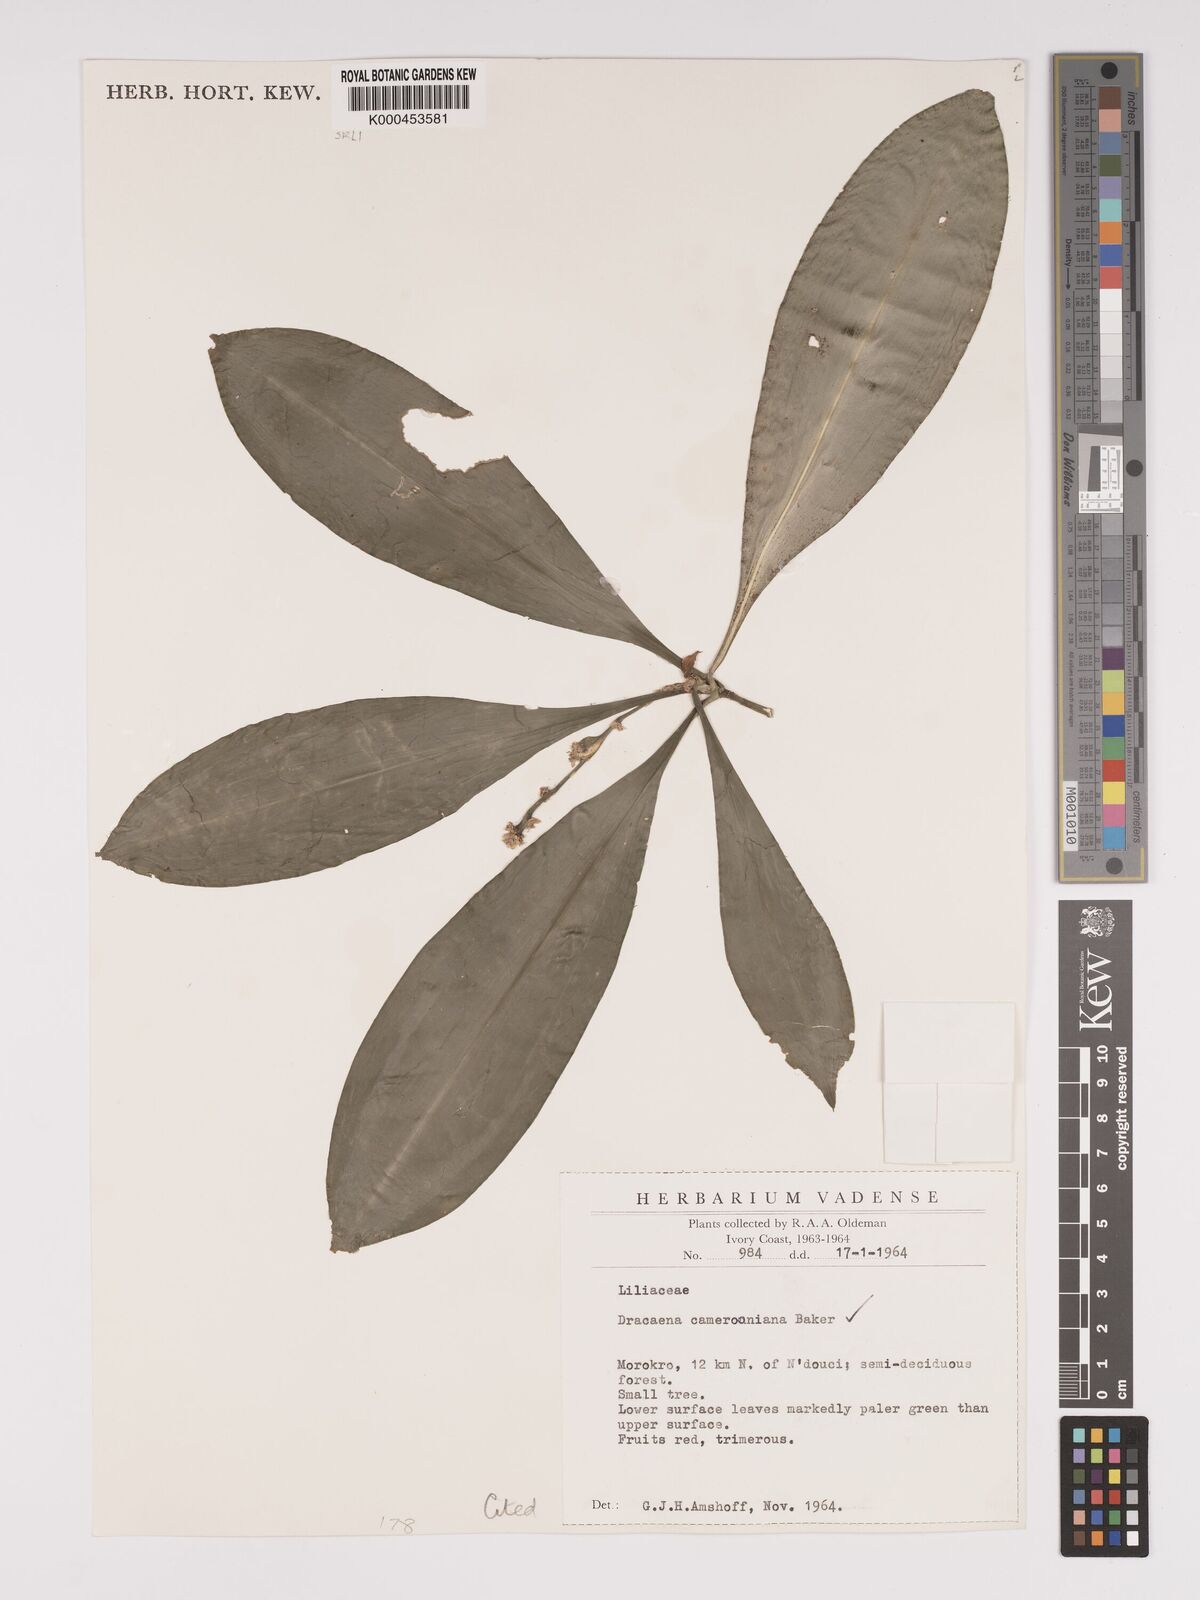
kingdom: Plantae
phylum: Tracheophyta
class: Liliopsida
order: Asparagales
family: Asparagaceae
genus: Dracaena
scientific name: Dracaena camerooniana
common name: Dragon tree
